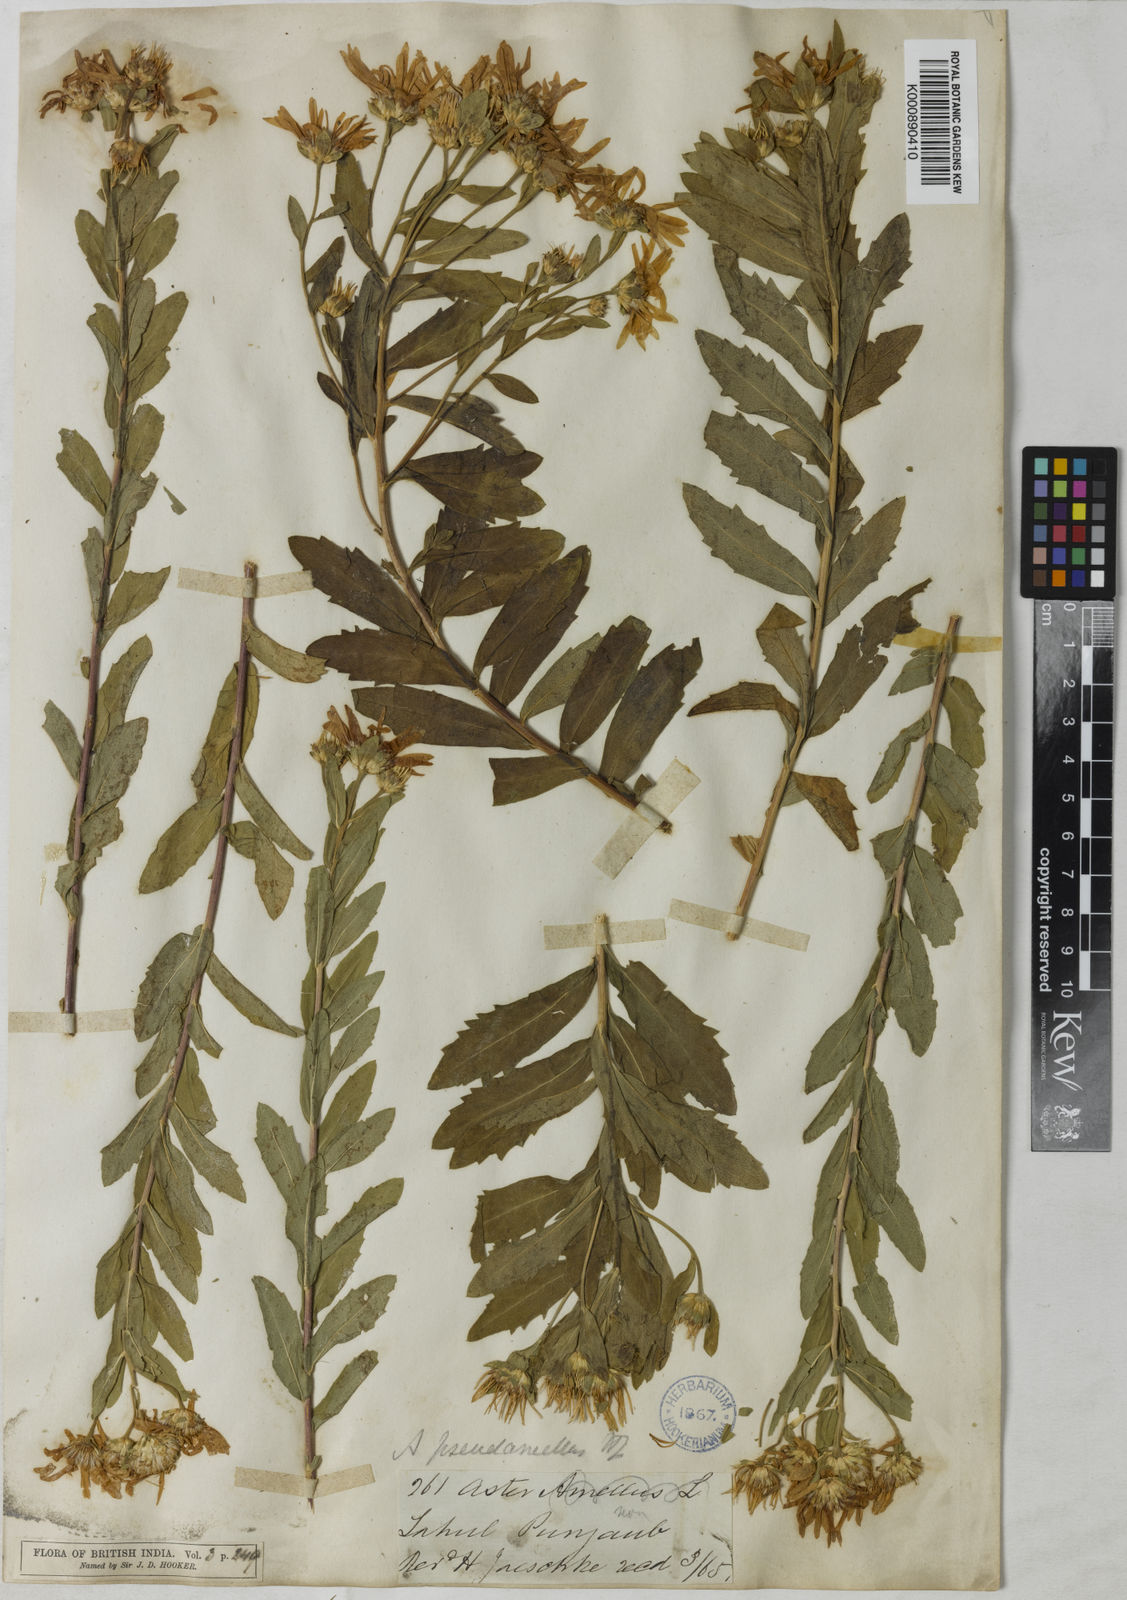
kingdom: Plantae
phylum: Tracheophyta
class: Magnoliopsida
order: Asterales
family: Asteraceae
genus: Aster
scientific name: Aster indamellus
